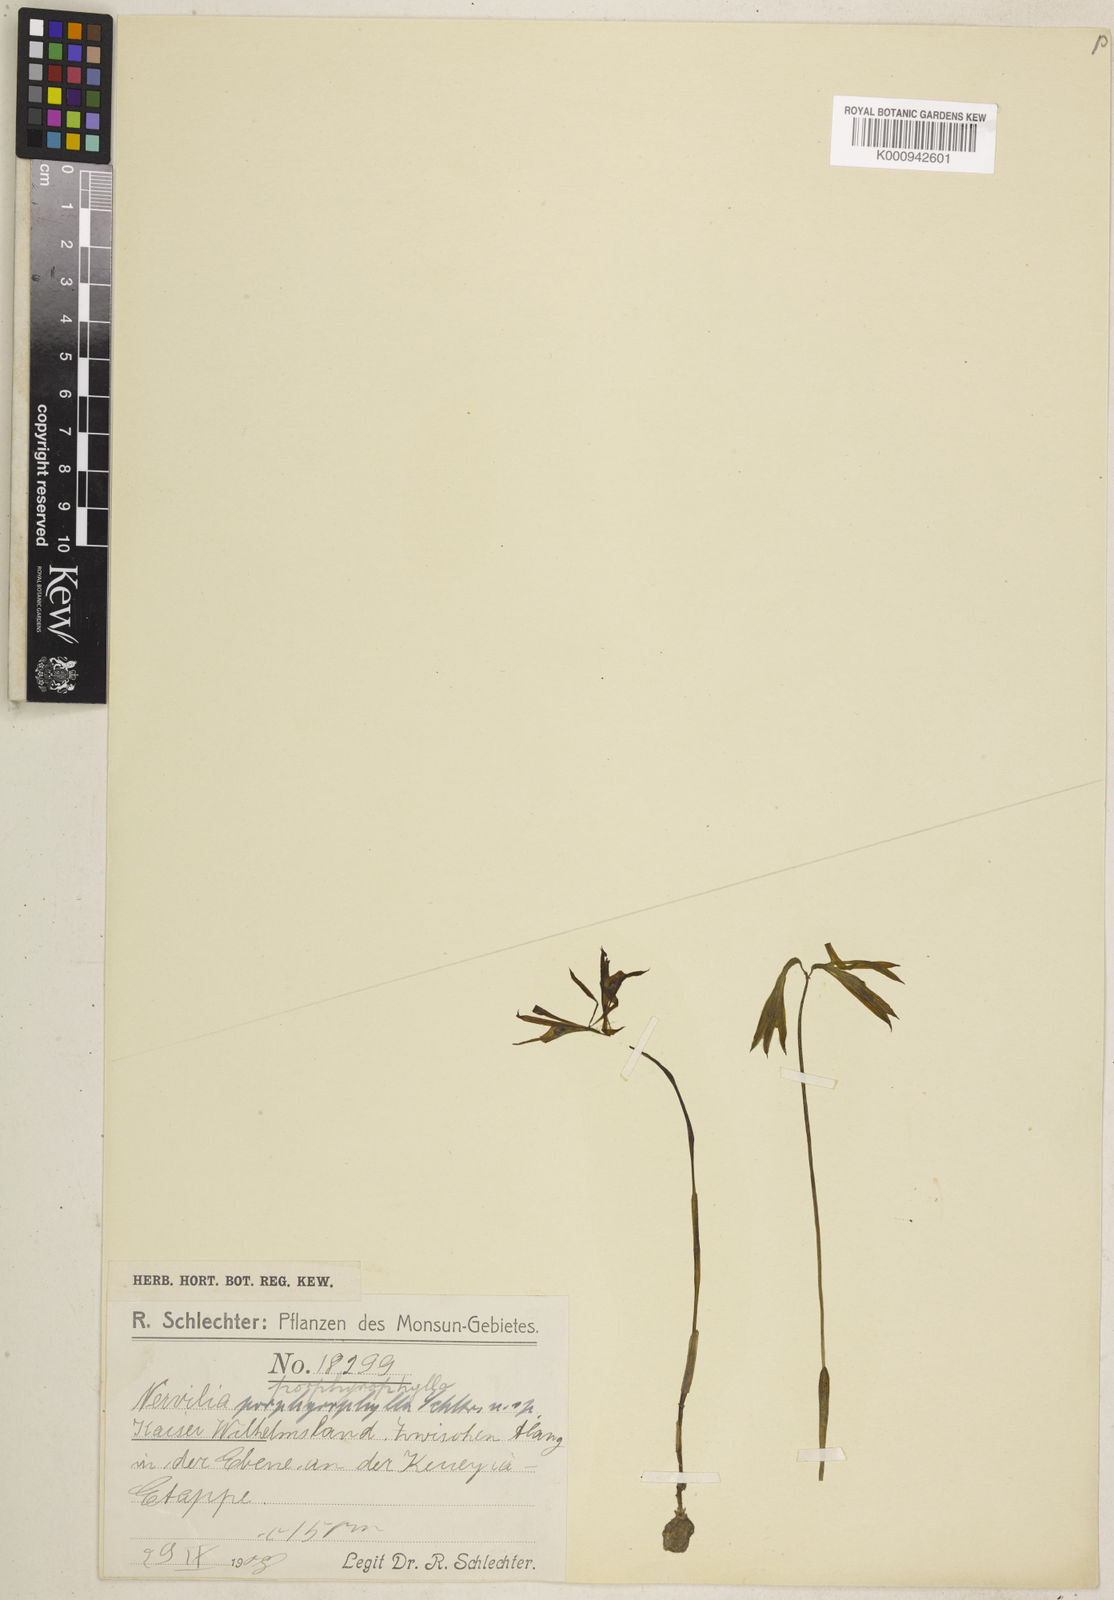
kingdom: Plantae
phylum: Tracheophyta
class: Liliopsida
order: Asparagales
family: Orchidaceae
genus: Nervilia
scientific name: Nervilia plicata
